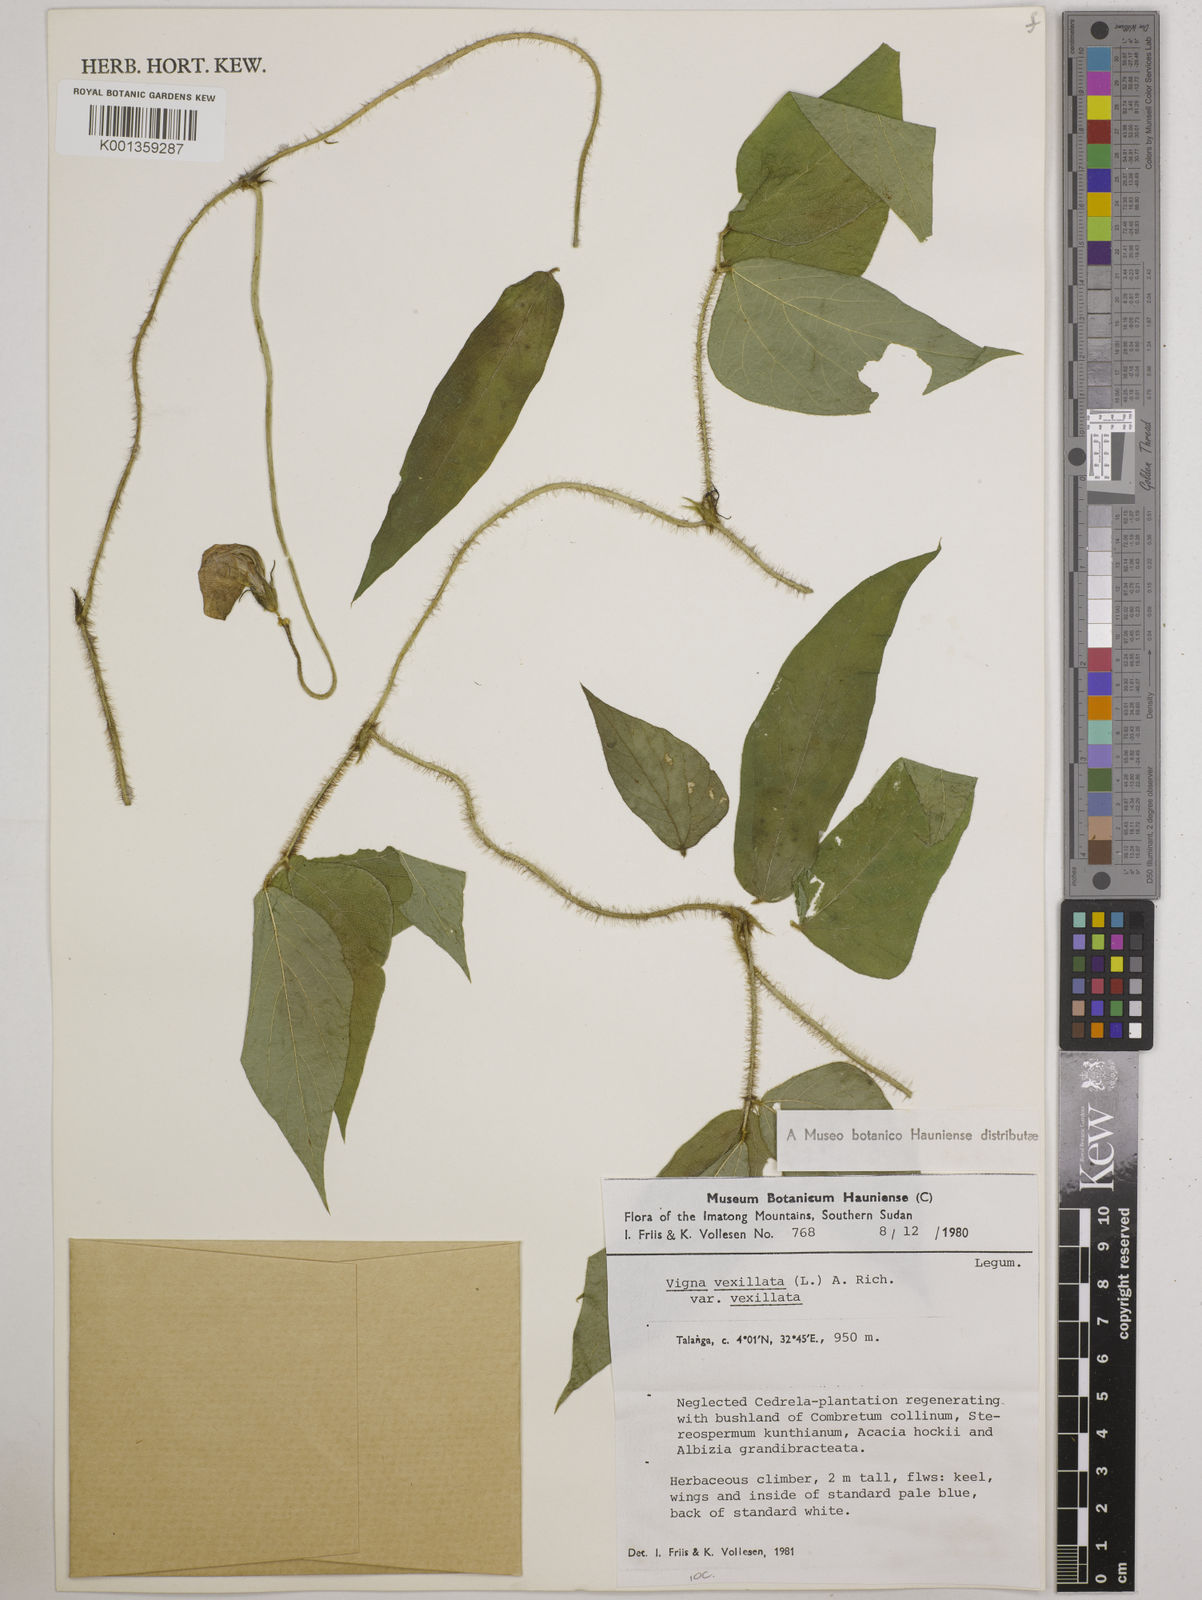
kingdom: Plantae
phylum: Tracheophyta
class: Magnoliopsida
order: Fabales
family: Fabaceae
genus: Vigna
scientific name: Vigna vexillata
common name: Zombi pea
